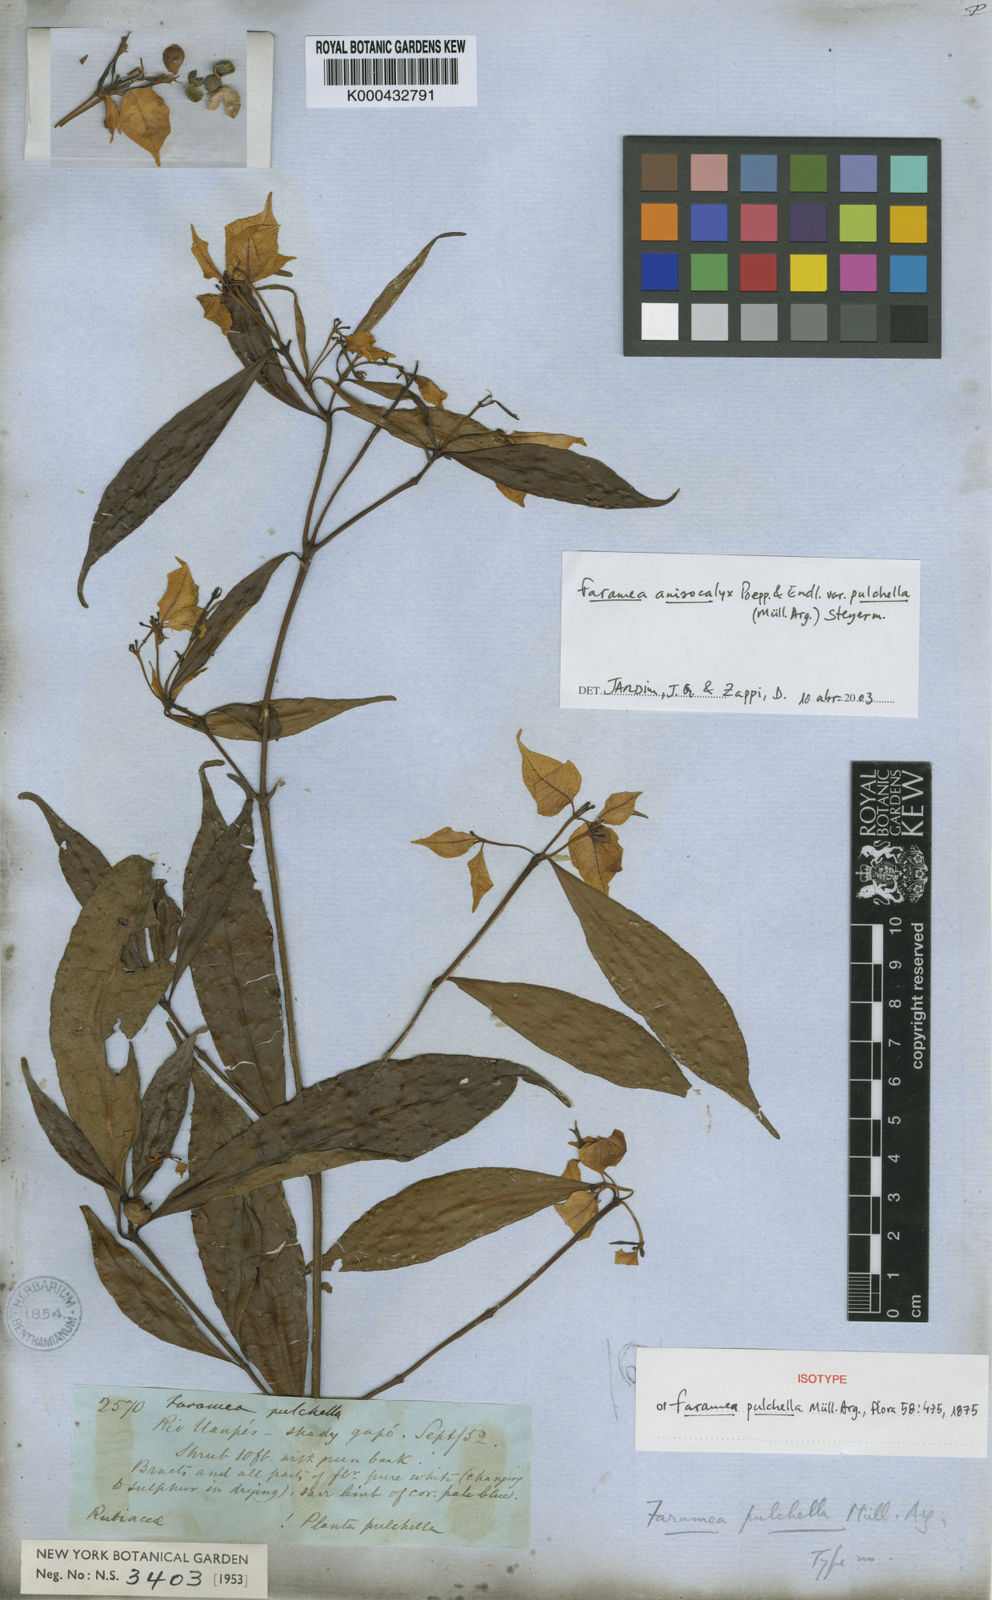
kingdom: Plantae
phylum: Tracheophyta
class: Magnoliopsida
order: Gentianales
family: Rubiaceae
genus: Faramea
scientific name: Faramea
